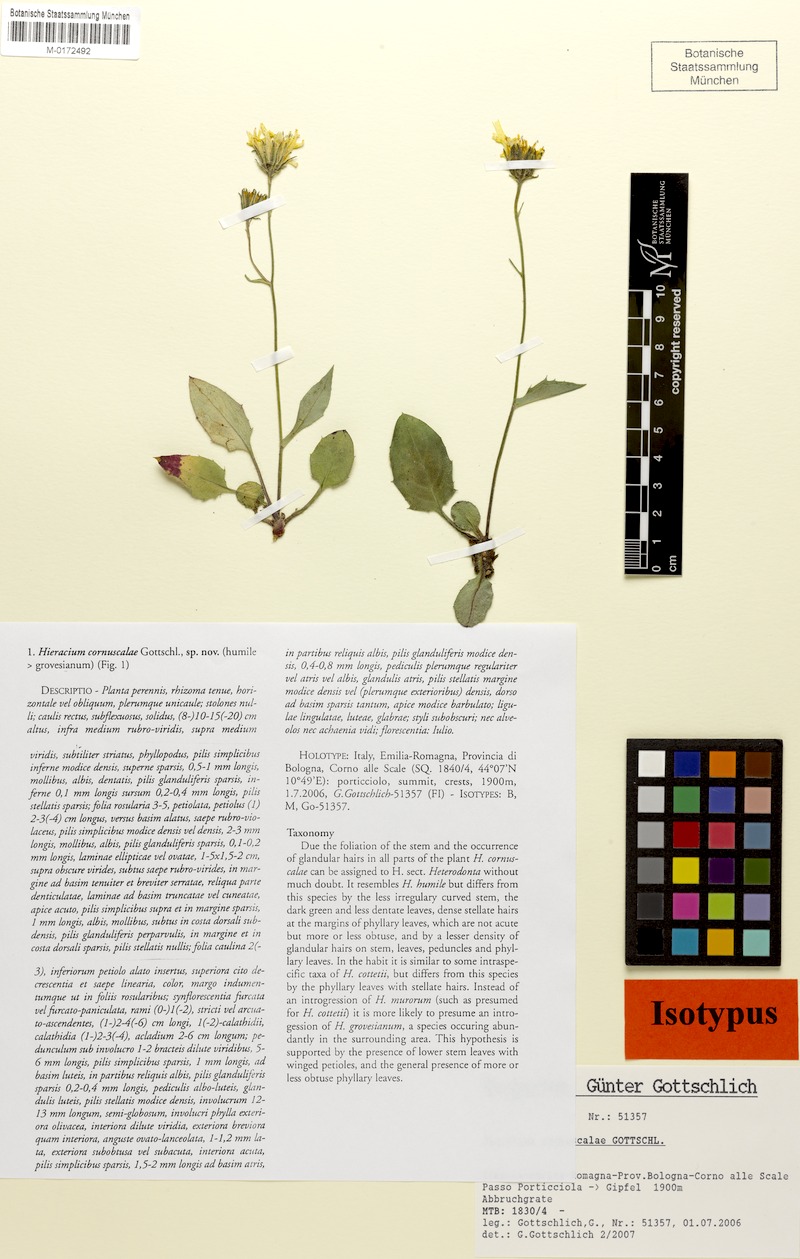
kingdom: Plantae
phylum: Tracheophyta
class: Magnoliopsida
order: Asterales
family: Asteraceae
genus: Hieracium
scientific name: Hieracium cornuscalae
